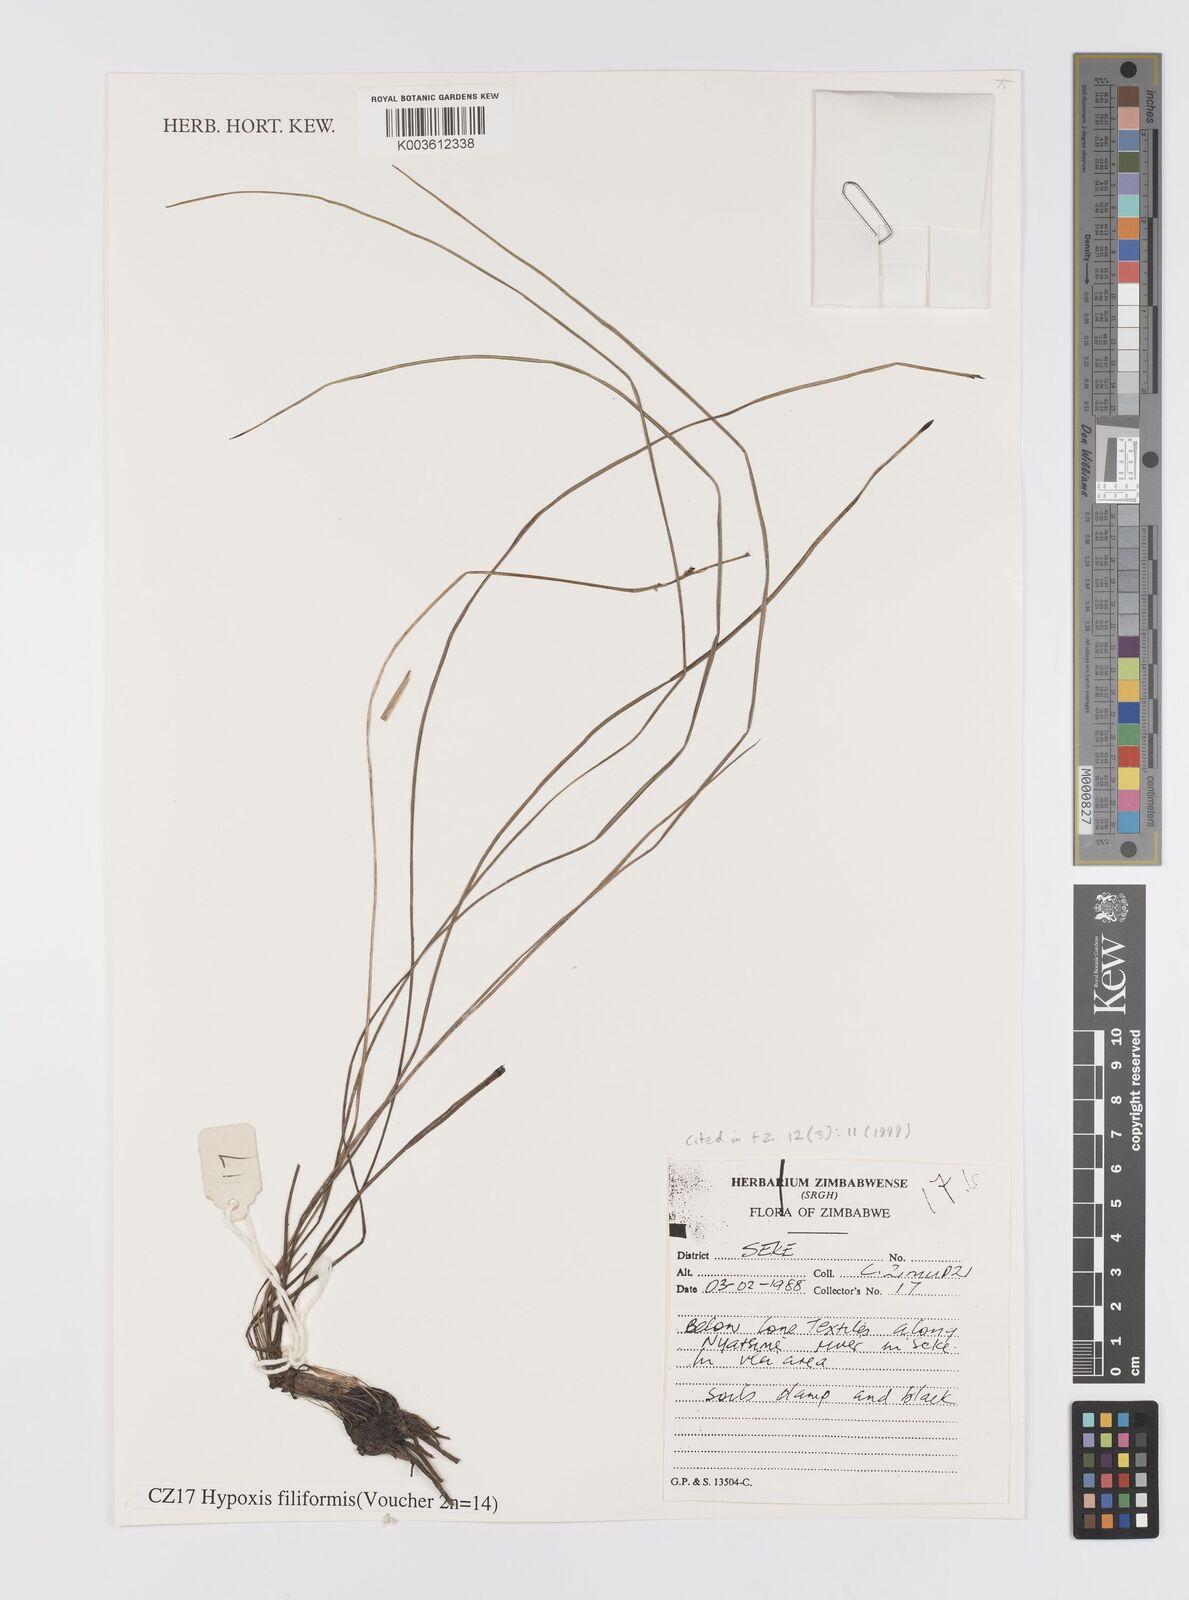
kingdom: Plantae
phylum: Tracheophyta
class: Liliopsida
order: Asparagales
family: Hypoxidaceae
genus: Hypoxis
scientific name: Hypoxis filiformis
